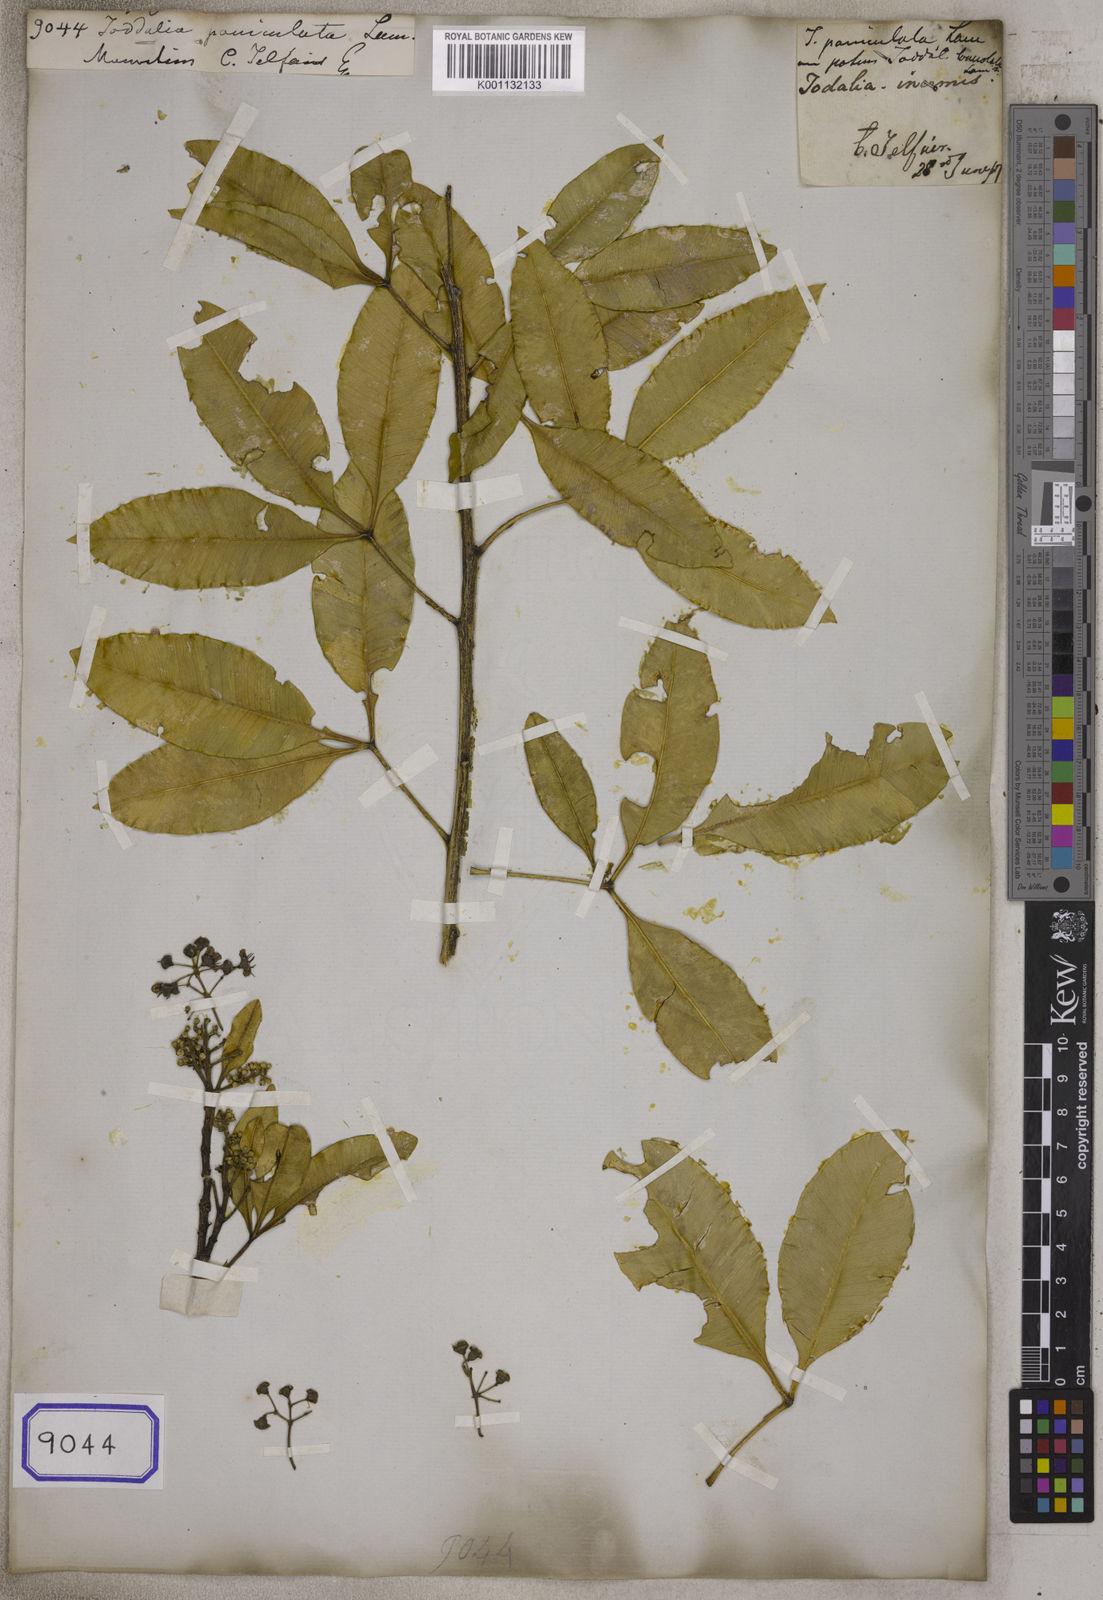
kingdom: Plantae
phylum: Tracheophyta
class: Magnoliopsida
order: Sapindales
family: Rutaceae
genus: Vepris
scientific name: Vepris lanceolata
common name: White ironwood
